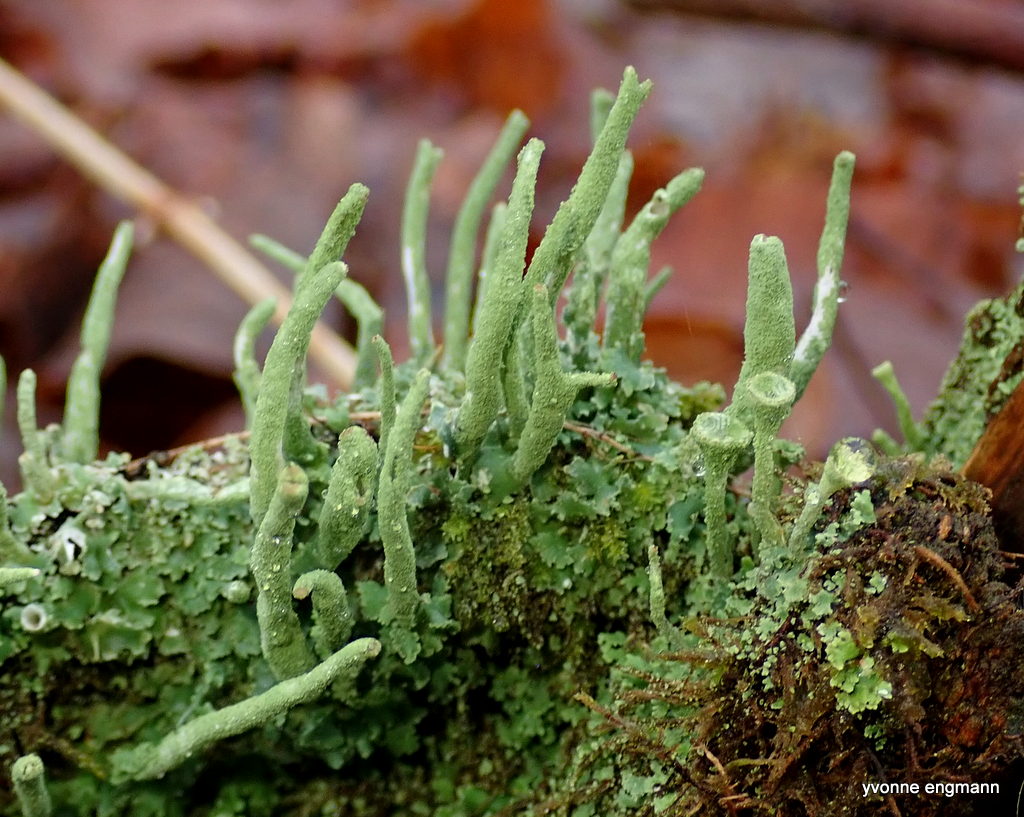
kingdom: Fungi
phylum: Ascomycota
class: Lecanoromycetes
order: Lecanorales
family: Cladoniaceae
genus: Cladonia
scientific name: Cladonia ochrochlora
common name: stød-bægerlav
